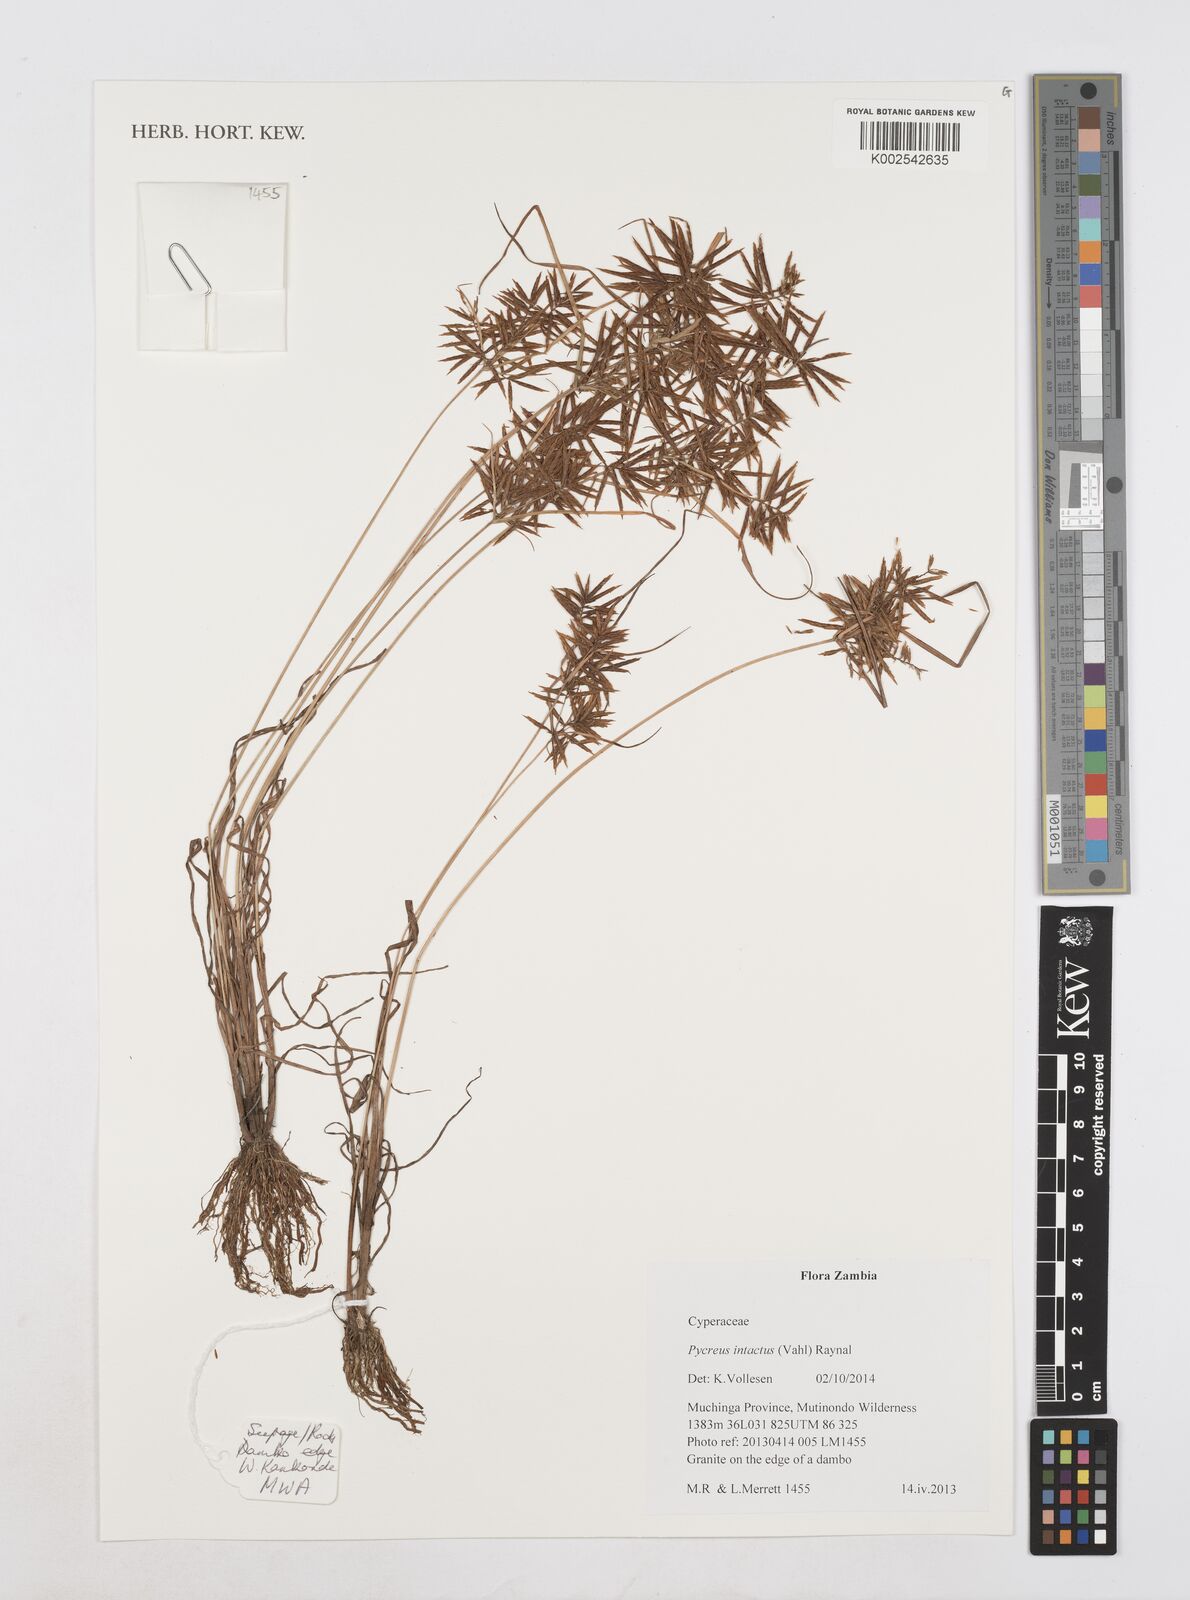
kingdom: Plantae
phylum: Tracheophyta
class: Liliopsida
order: Poales
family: Cyperaceae
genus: Cyperus
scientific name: Cyperus intactus
